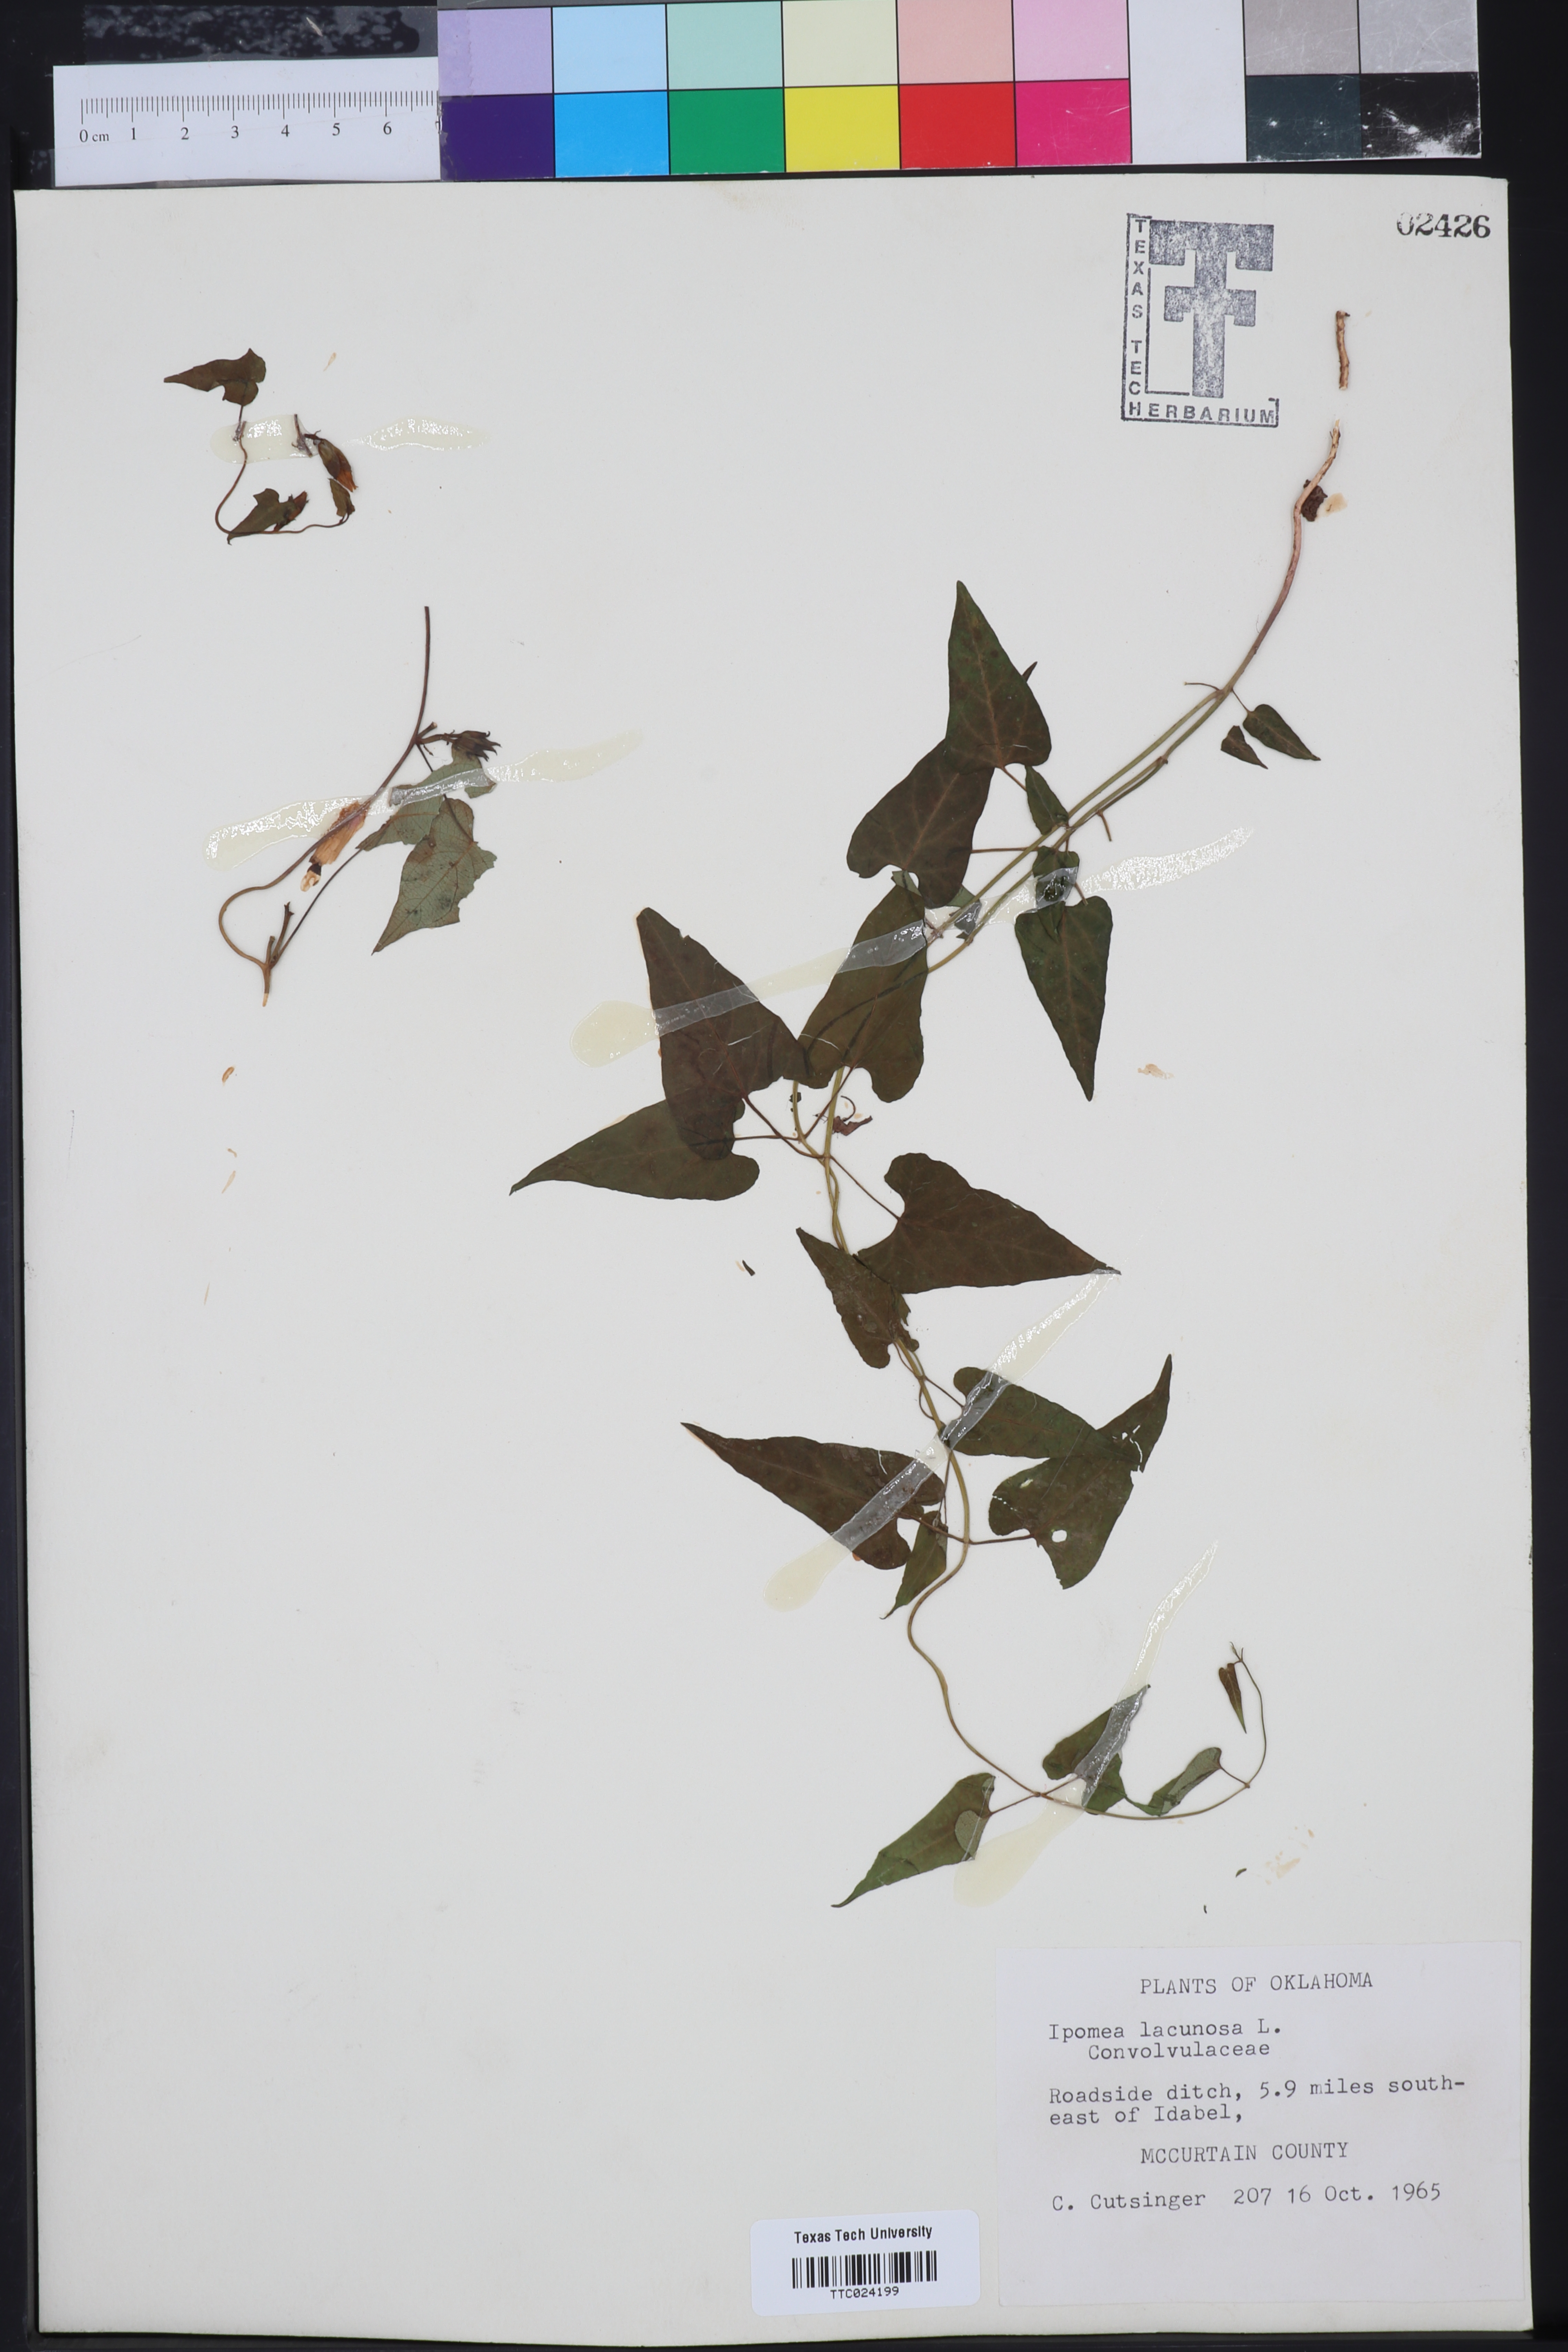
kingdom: Plantae
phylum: Tracheophyta
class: Magnoliopsida
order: Solanales
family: Convolvulaceae
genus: Ipomoea
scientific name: Ipomoea lacunosa
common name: White morning-glory
